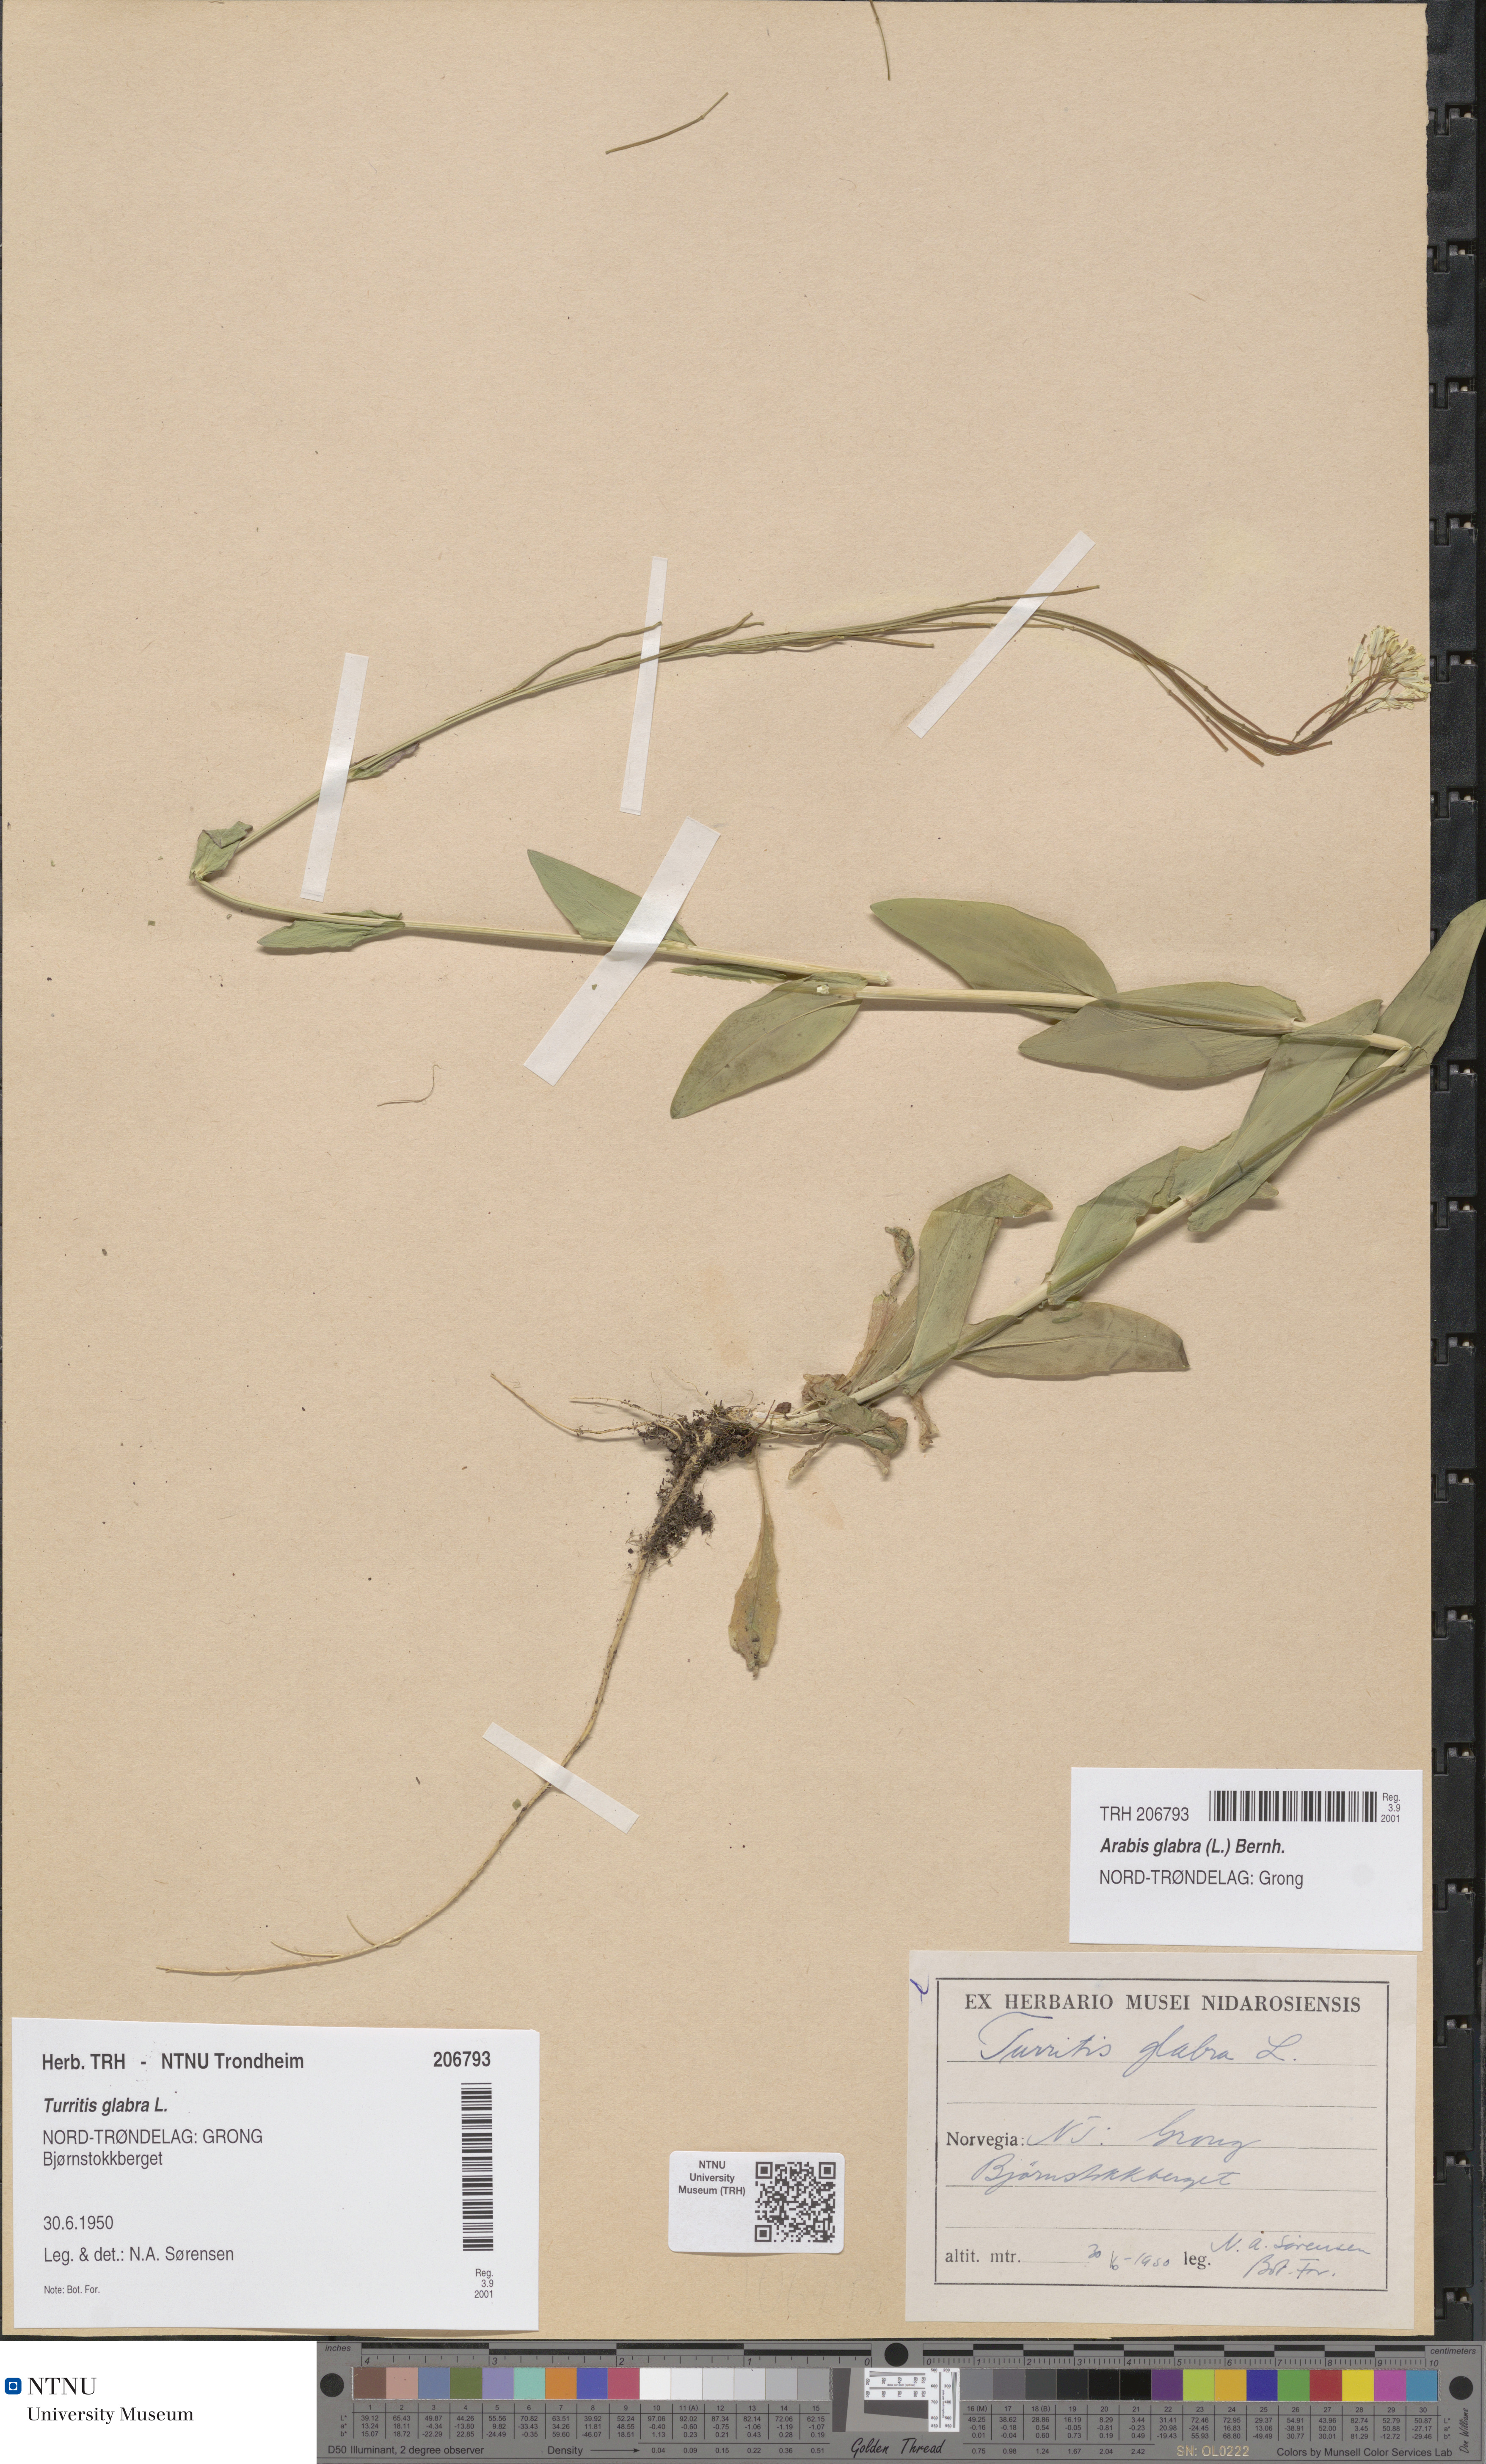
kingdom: Plantae
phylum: Tracheophyta
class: Magnoliopsida
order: Brassicales
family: Brassicaceae
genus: Turritis
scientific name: Turritis glabra
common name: Tower rockcress
